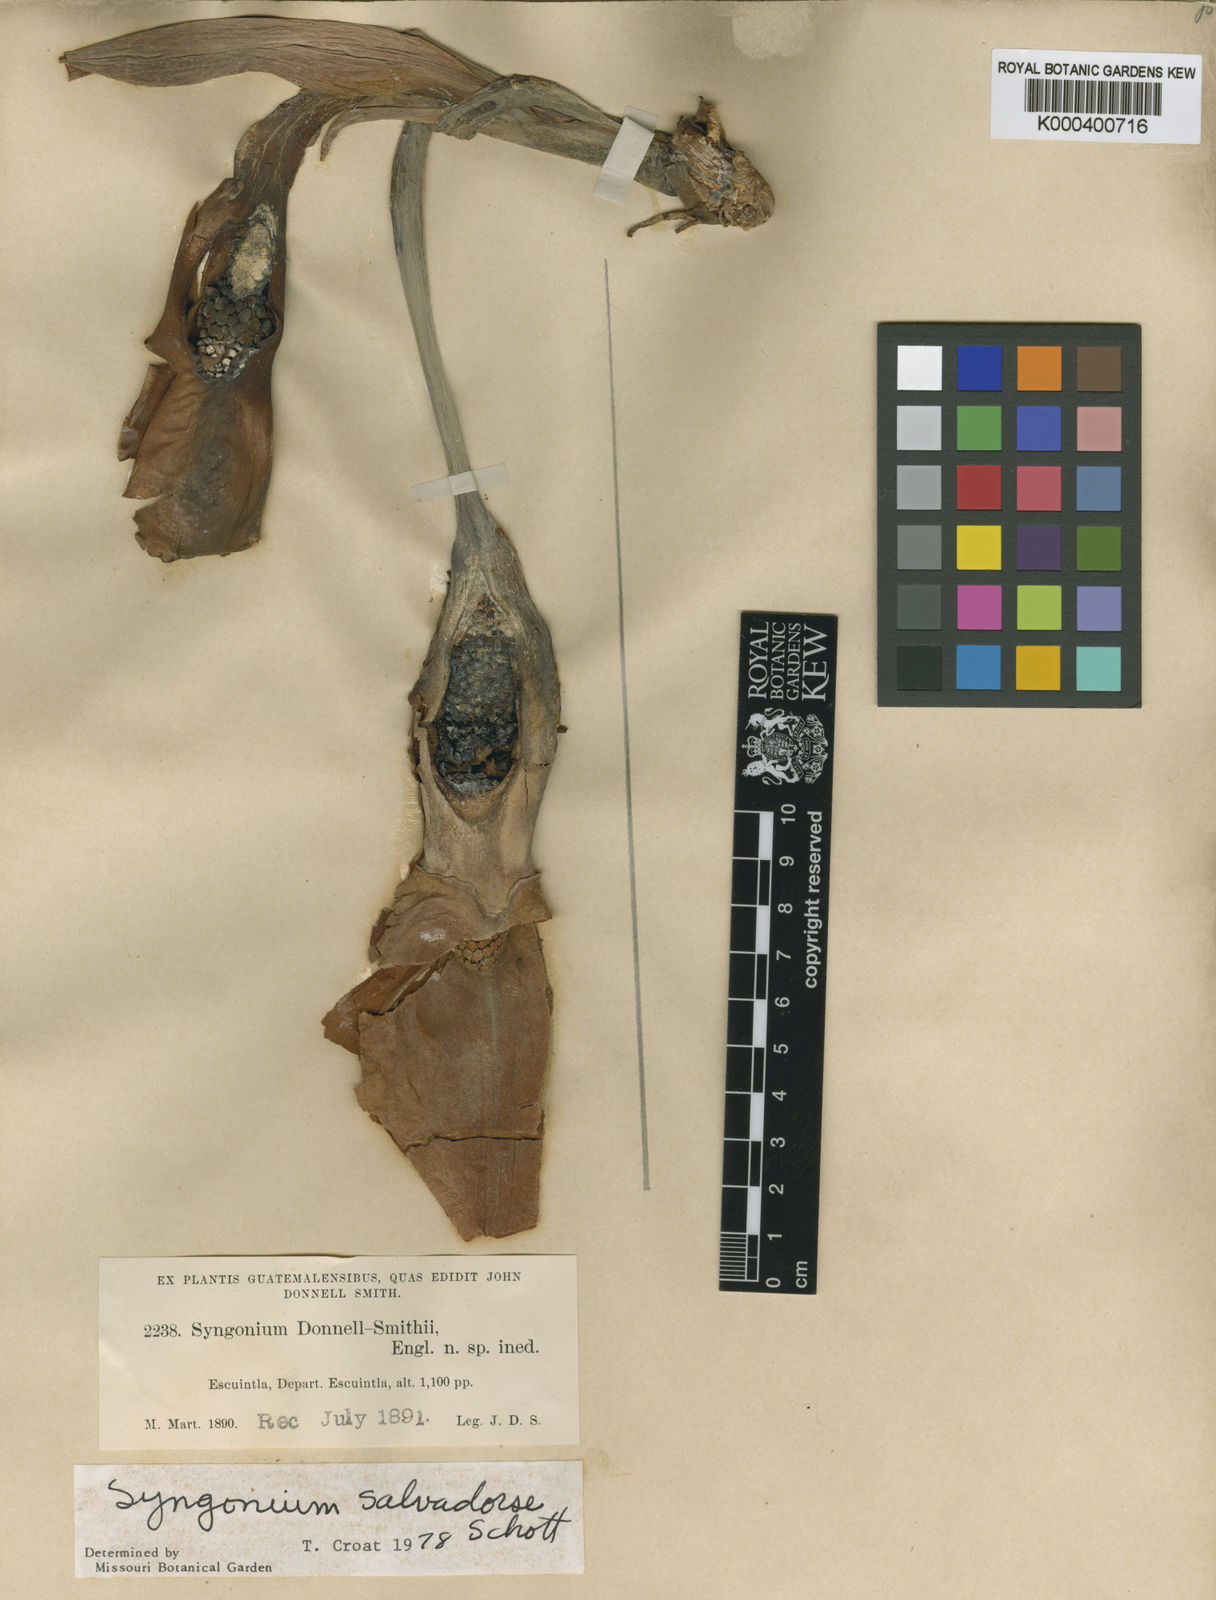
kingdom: Plantae
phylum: Tracheophyta
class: Liliopsida
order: Alismatales
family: Araceae
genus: Syngonium
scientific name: Syngonium salvadorense
